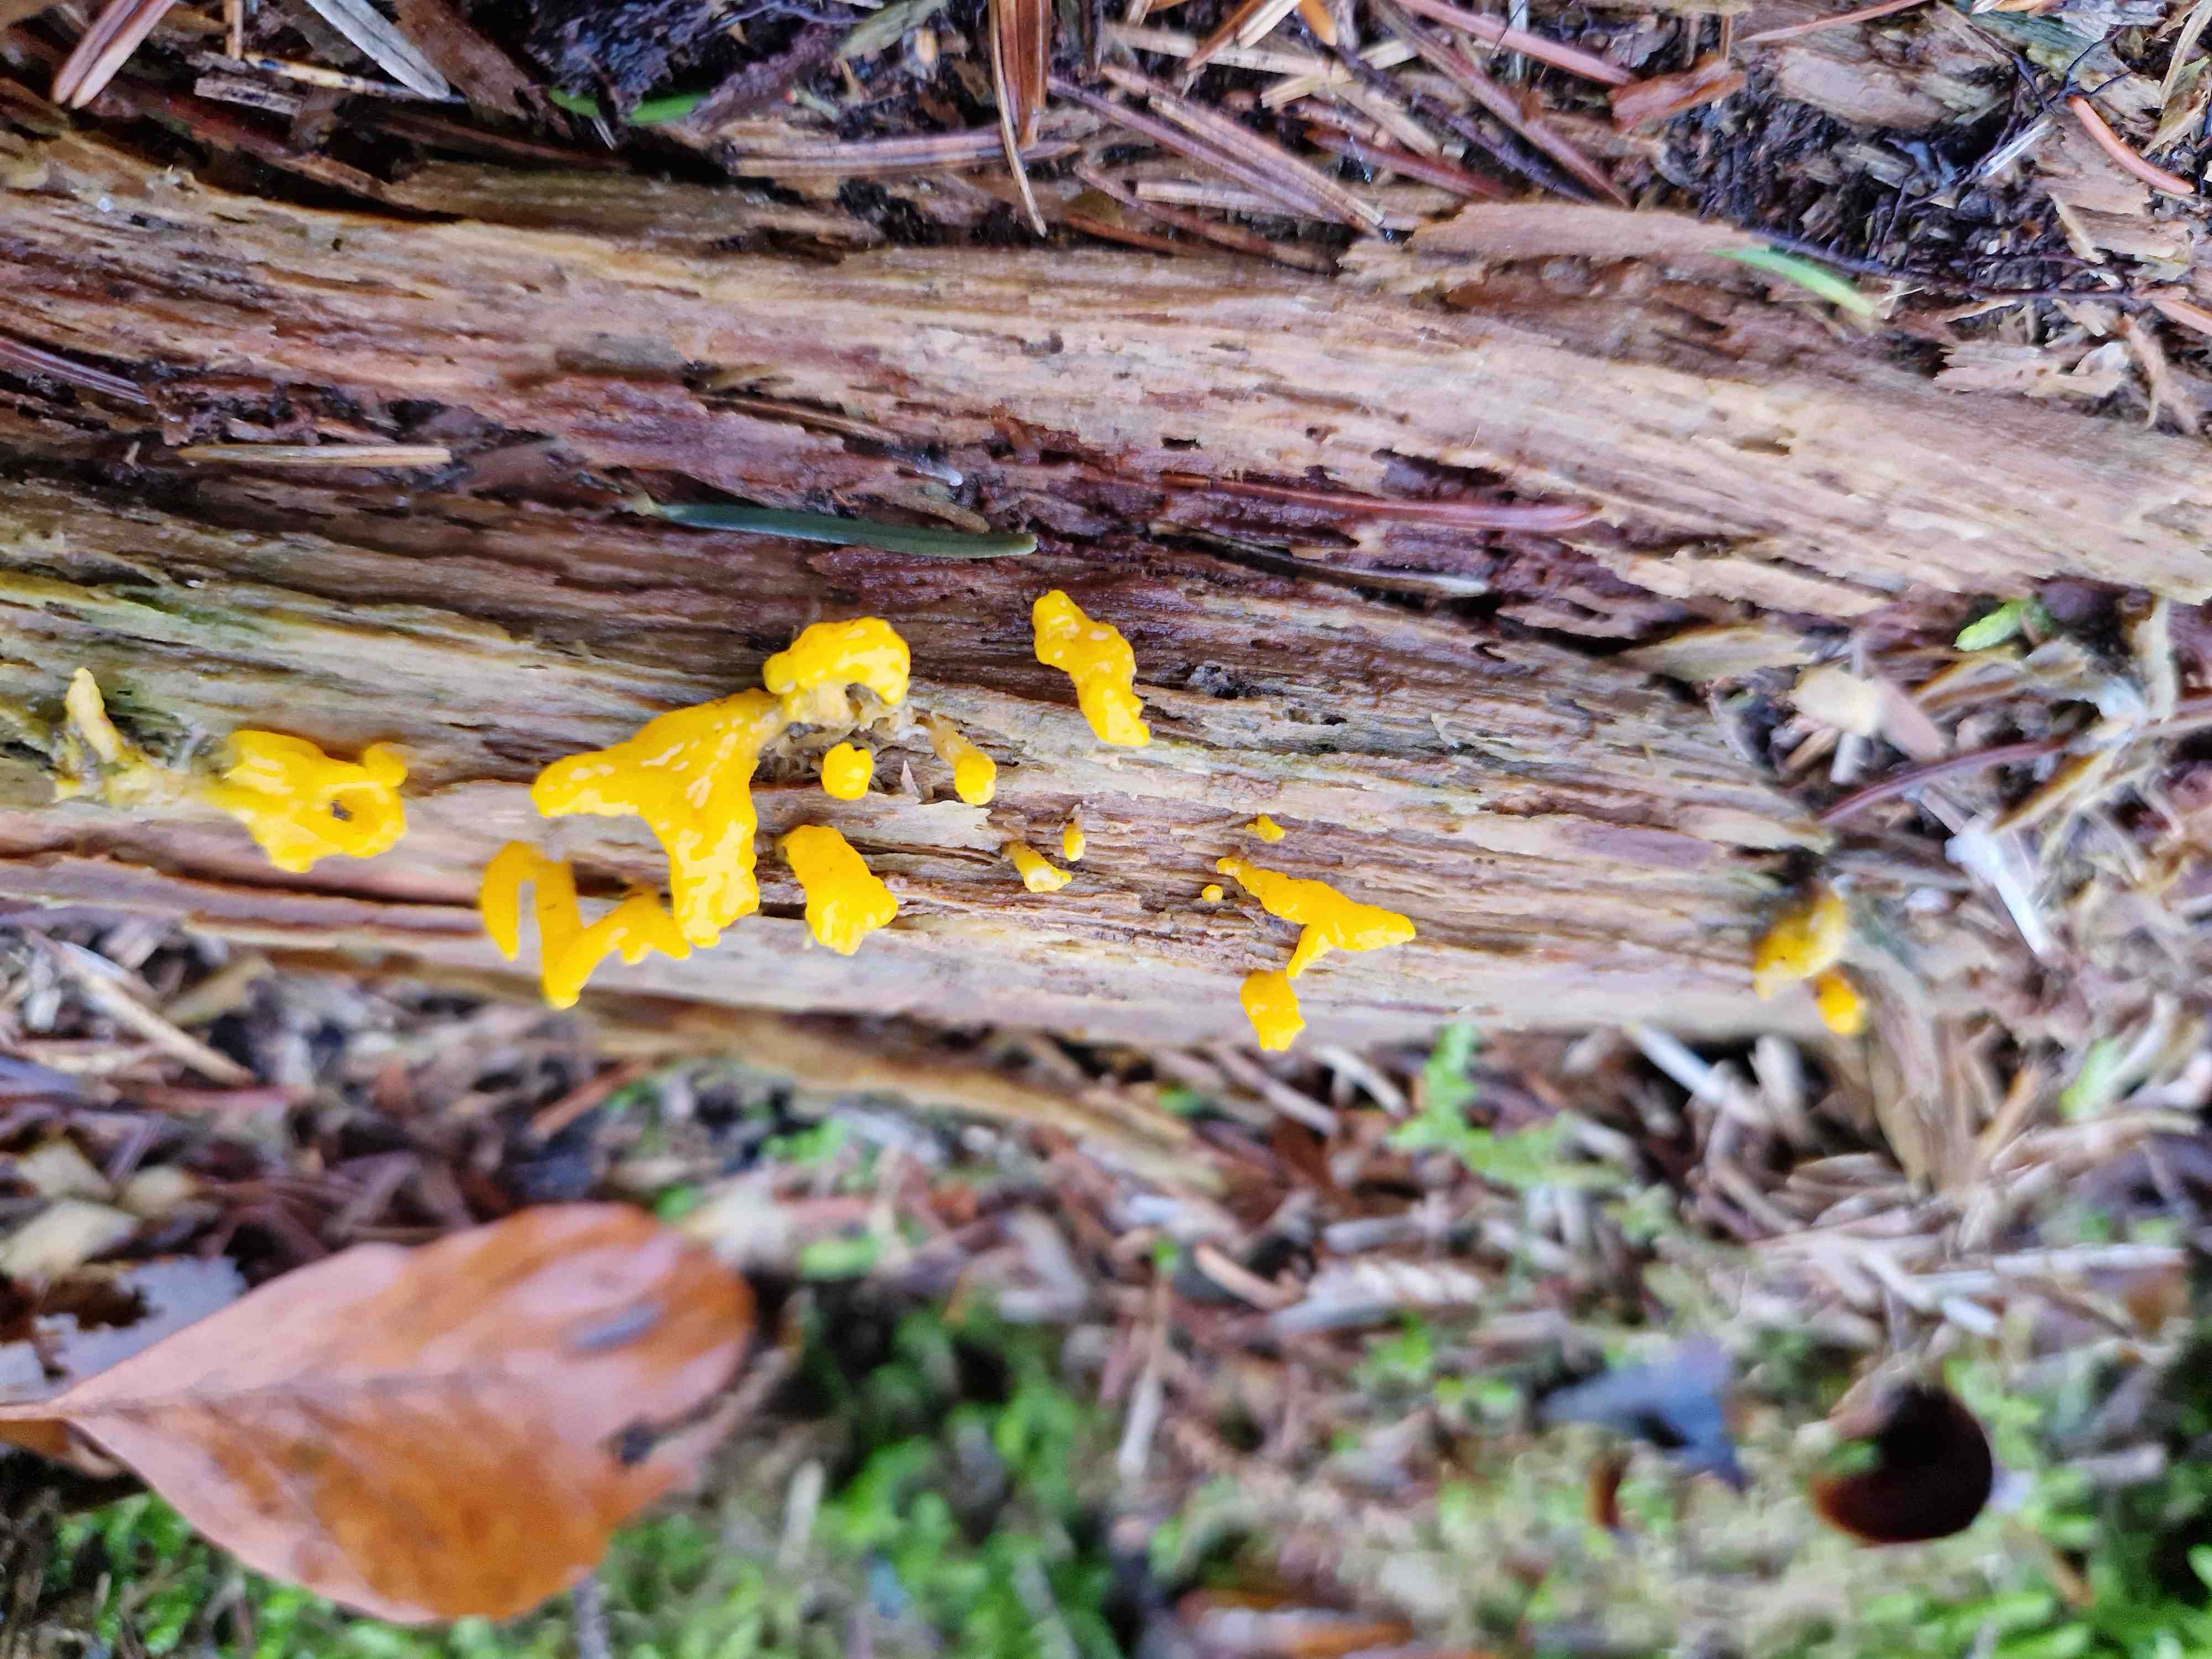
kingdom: Fungi
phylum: Basidiomycota
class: Dacrymycetes
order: Dacrymycetales
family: Dacrymycetaceae
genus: Calocera
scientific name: Calocera furcata
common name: fyrre-guldgaffel
